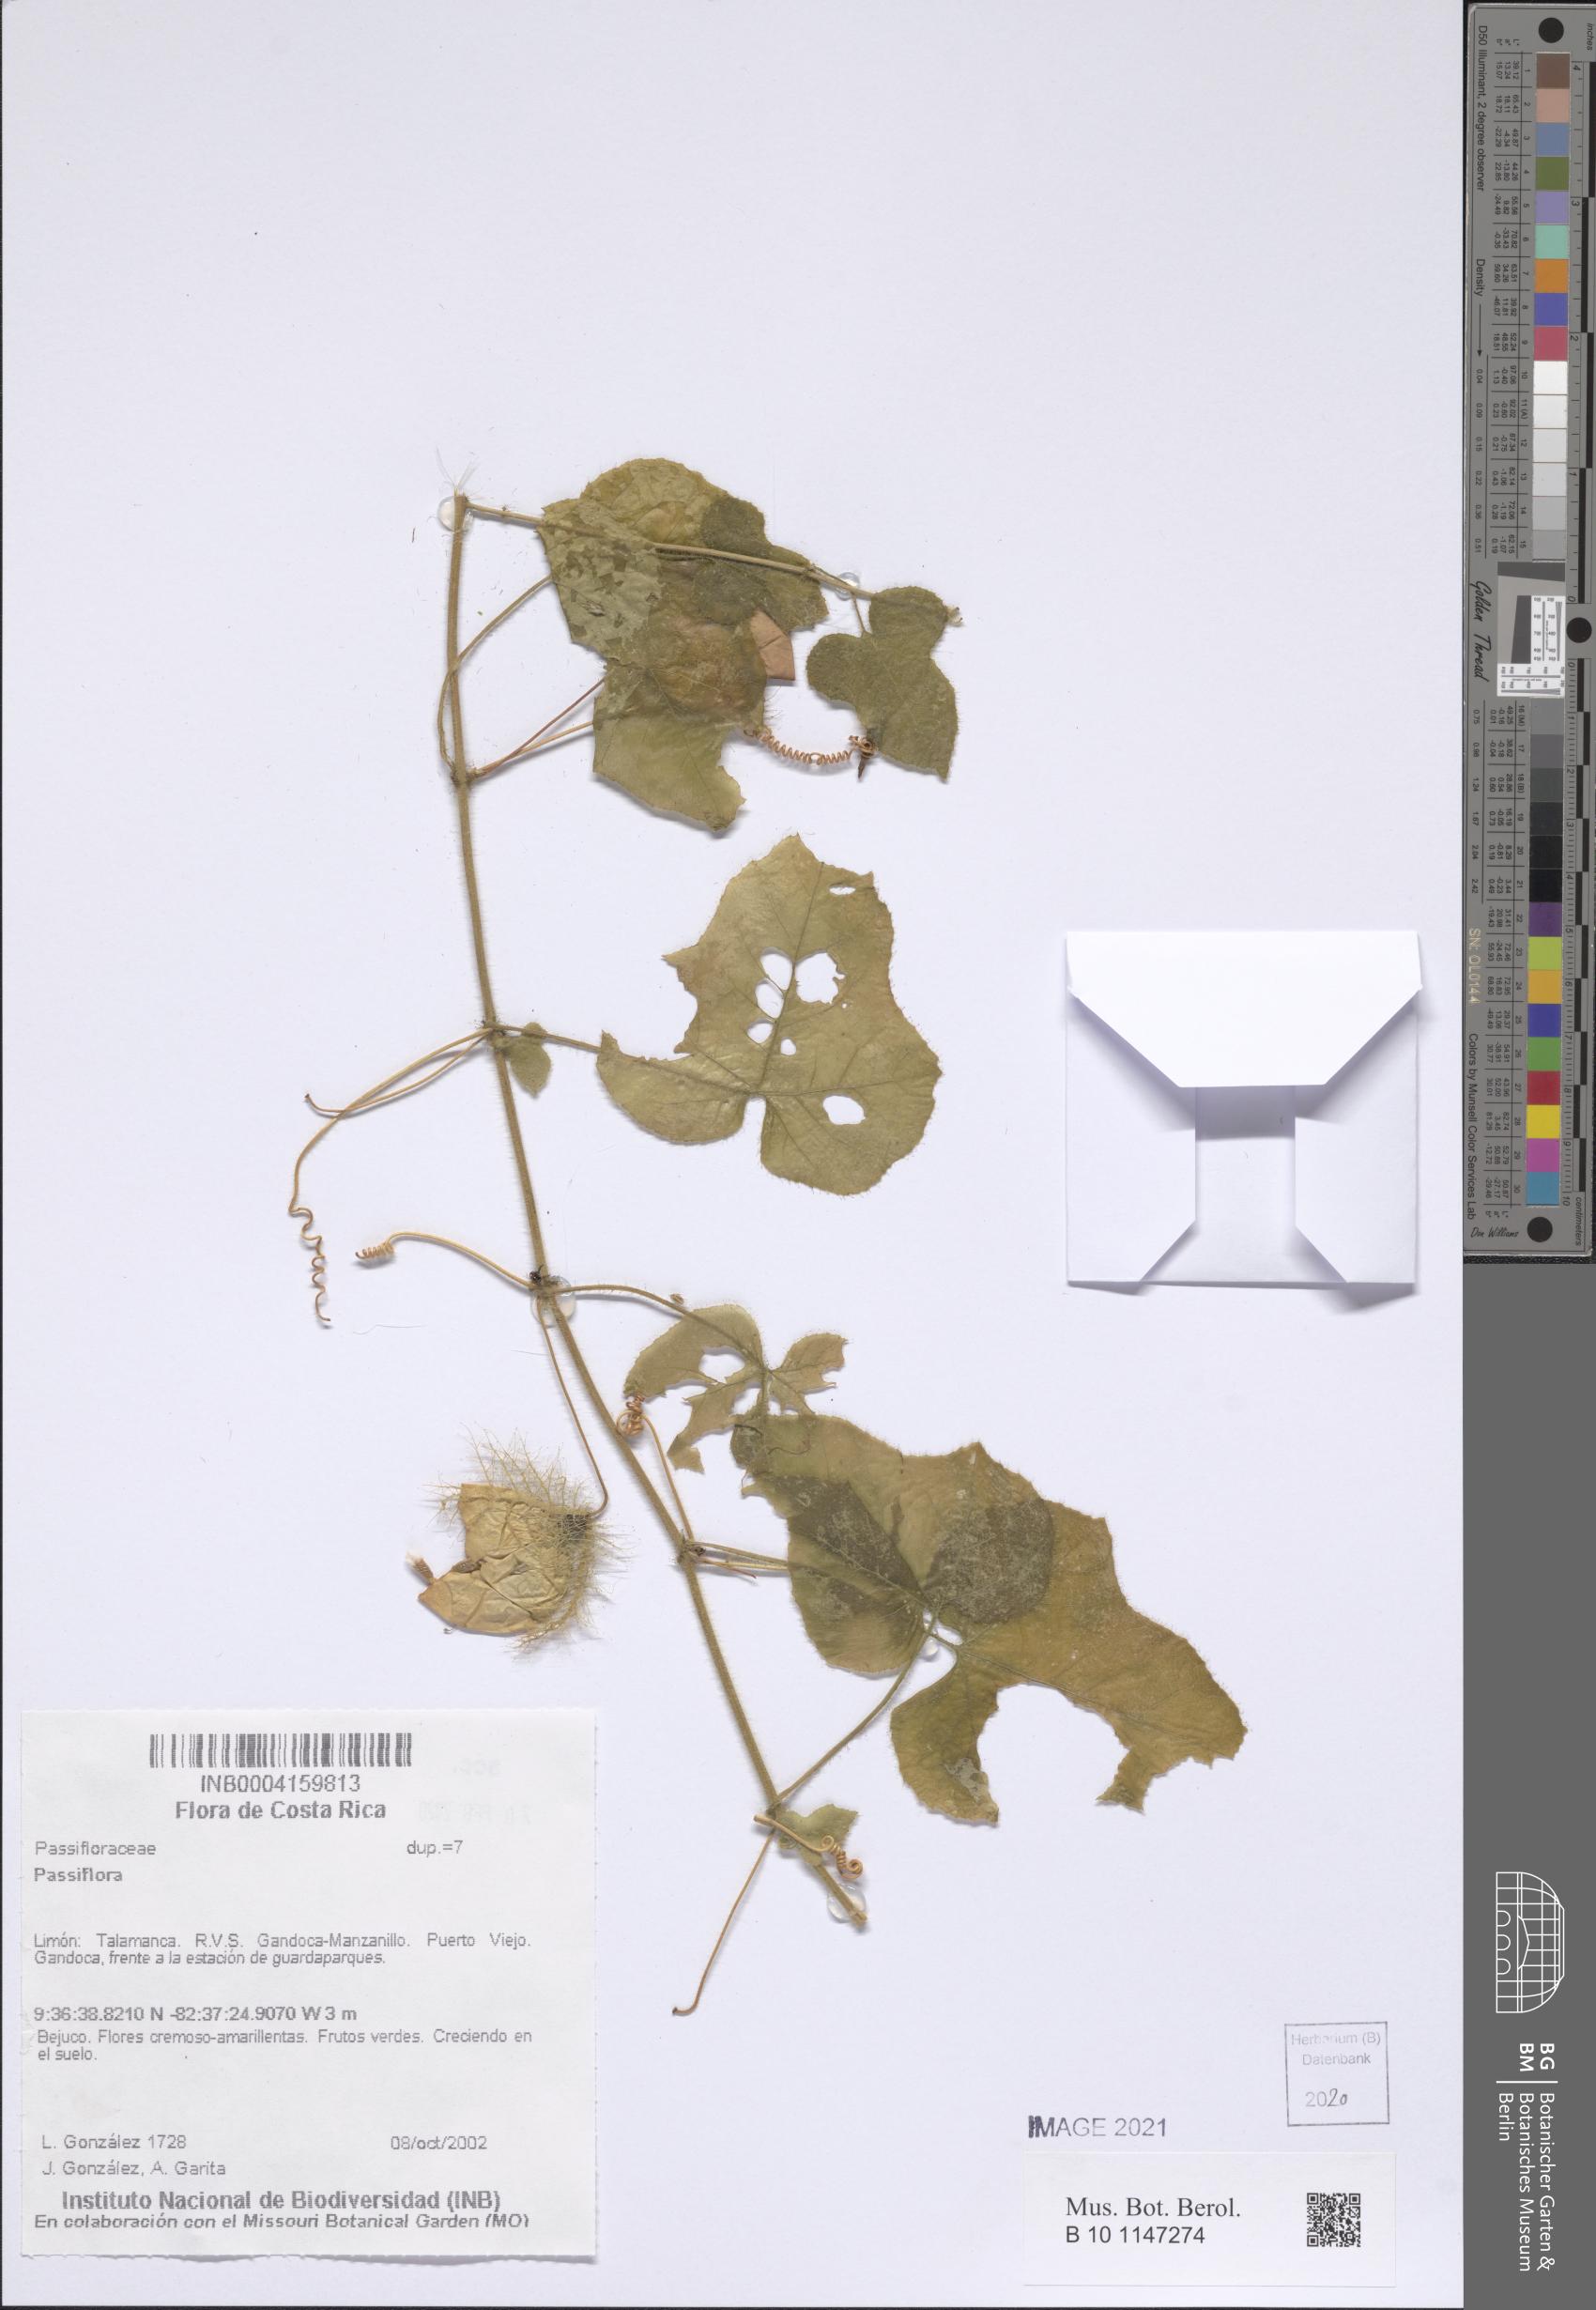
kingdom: Plantae
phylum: Tracheophyta
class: Magnoliopsida
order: Malpighiales
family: Passifloraceae
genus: Passiflora
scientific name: Passiflora
